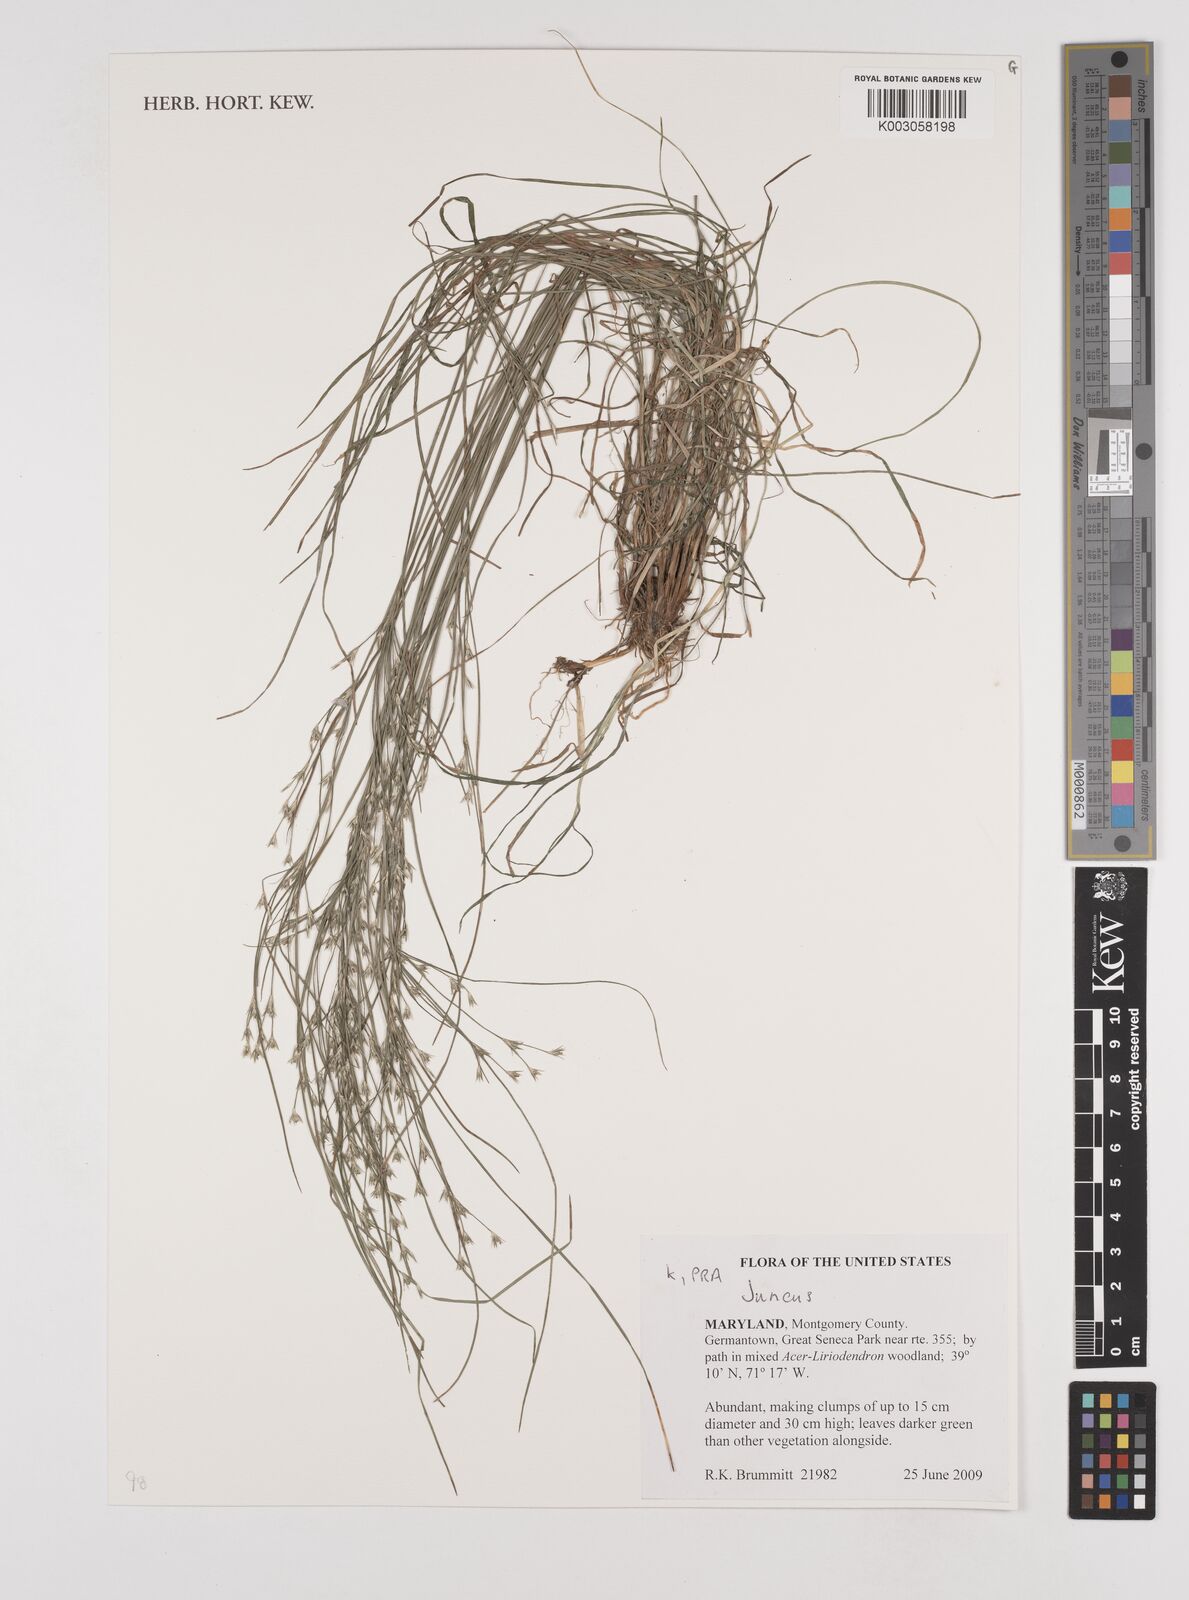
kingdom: Plantae
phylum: Tracheophyta
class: Liliopsida
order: Poales
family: Juncaceae
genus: Juncus
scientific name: Juncus
